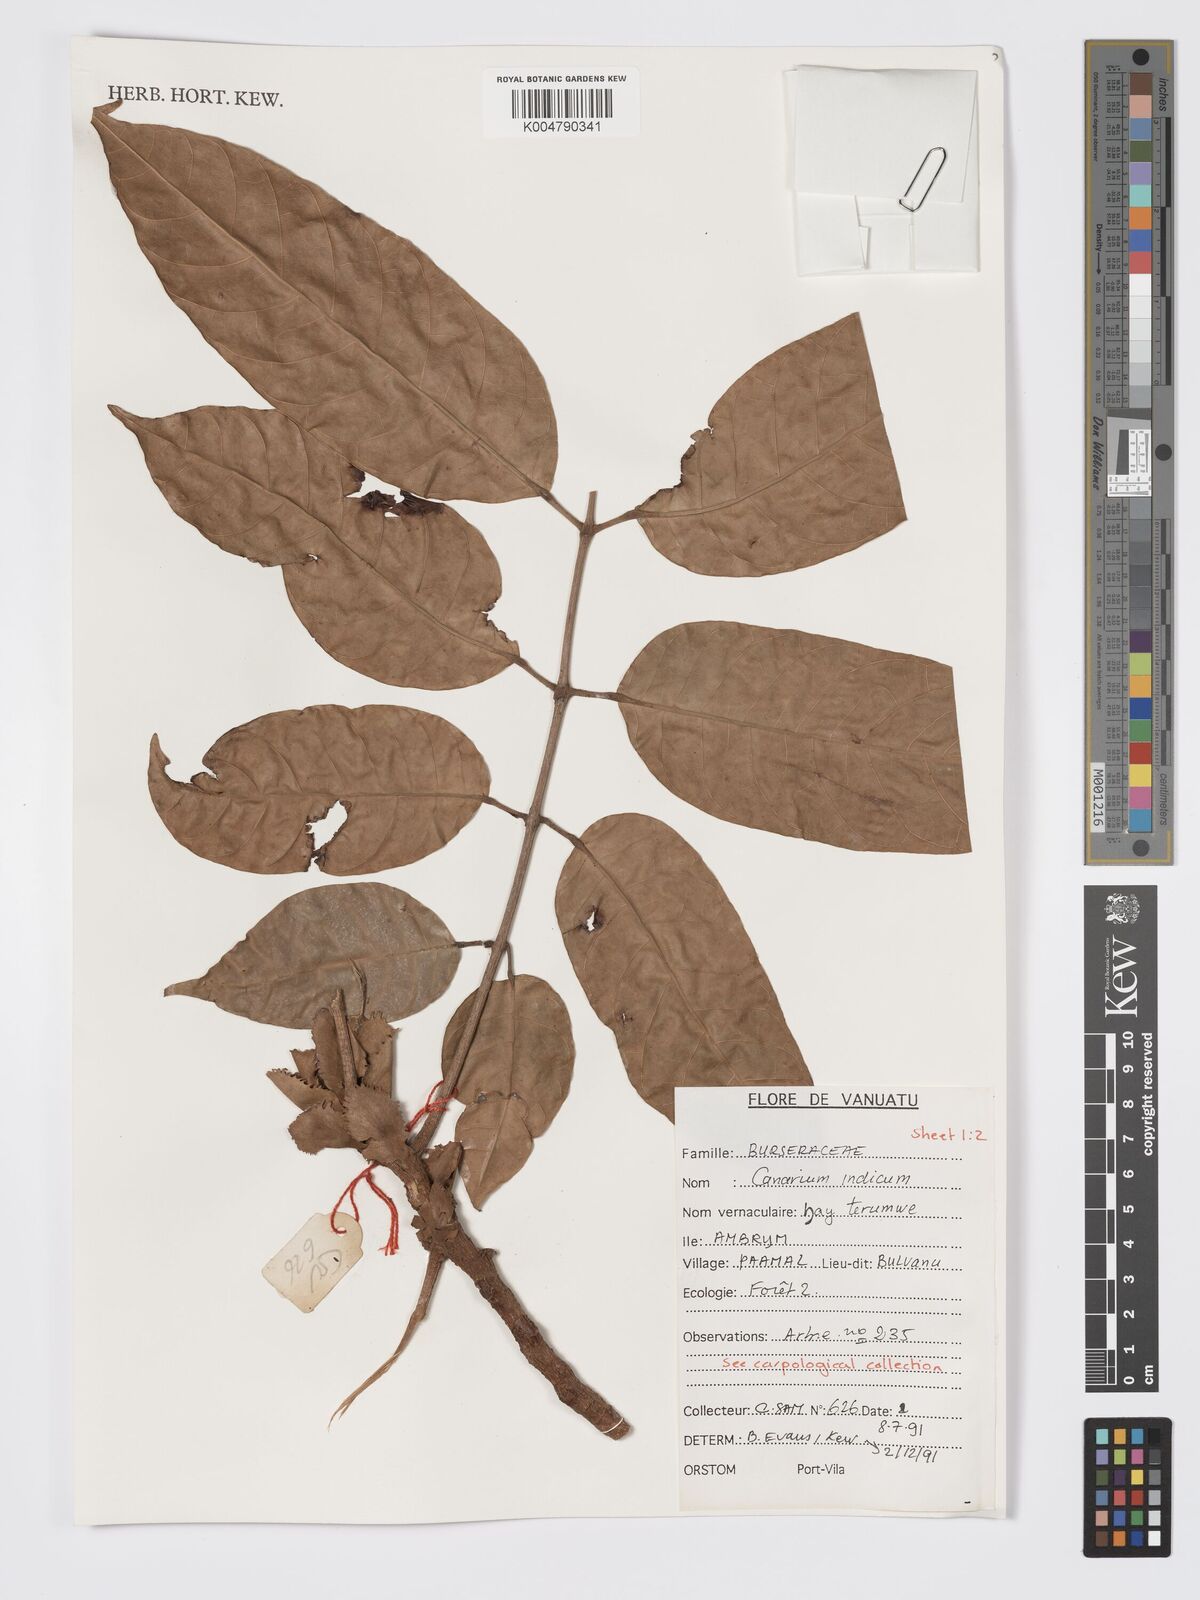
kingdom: Plantae
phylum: Tracheophyta
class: Magnoliopsida
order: Sapindales
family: Burseraceae
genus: Canarium
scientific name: Canarium indicum
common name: Canarium-nut
